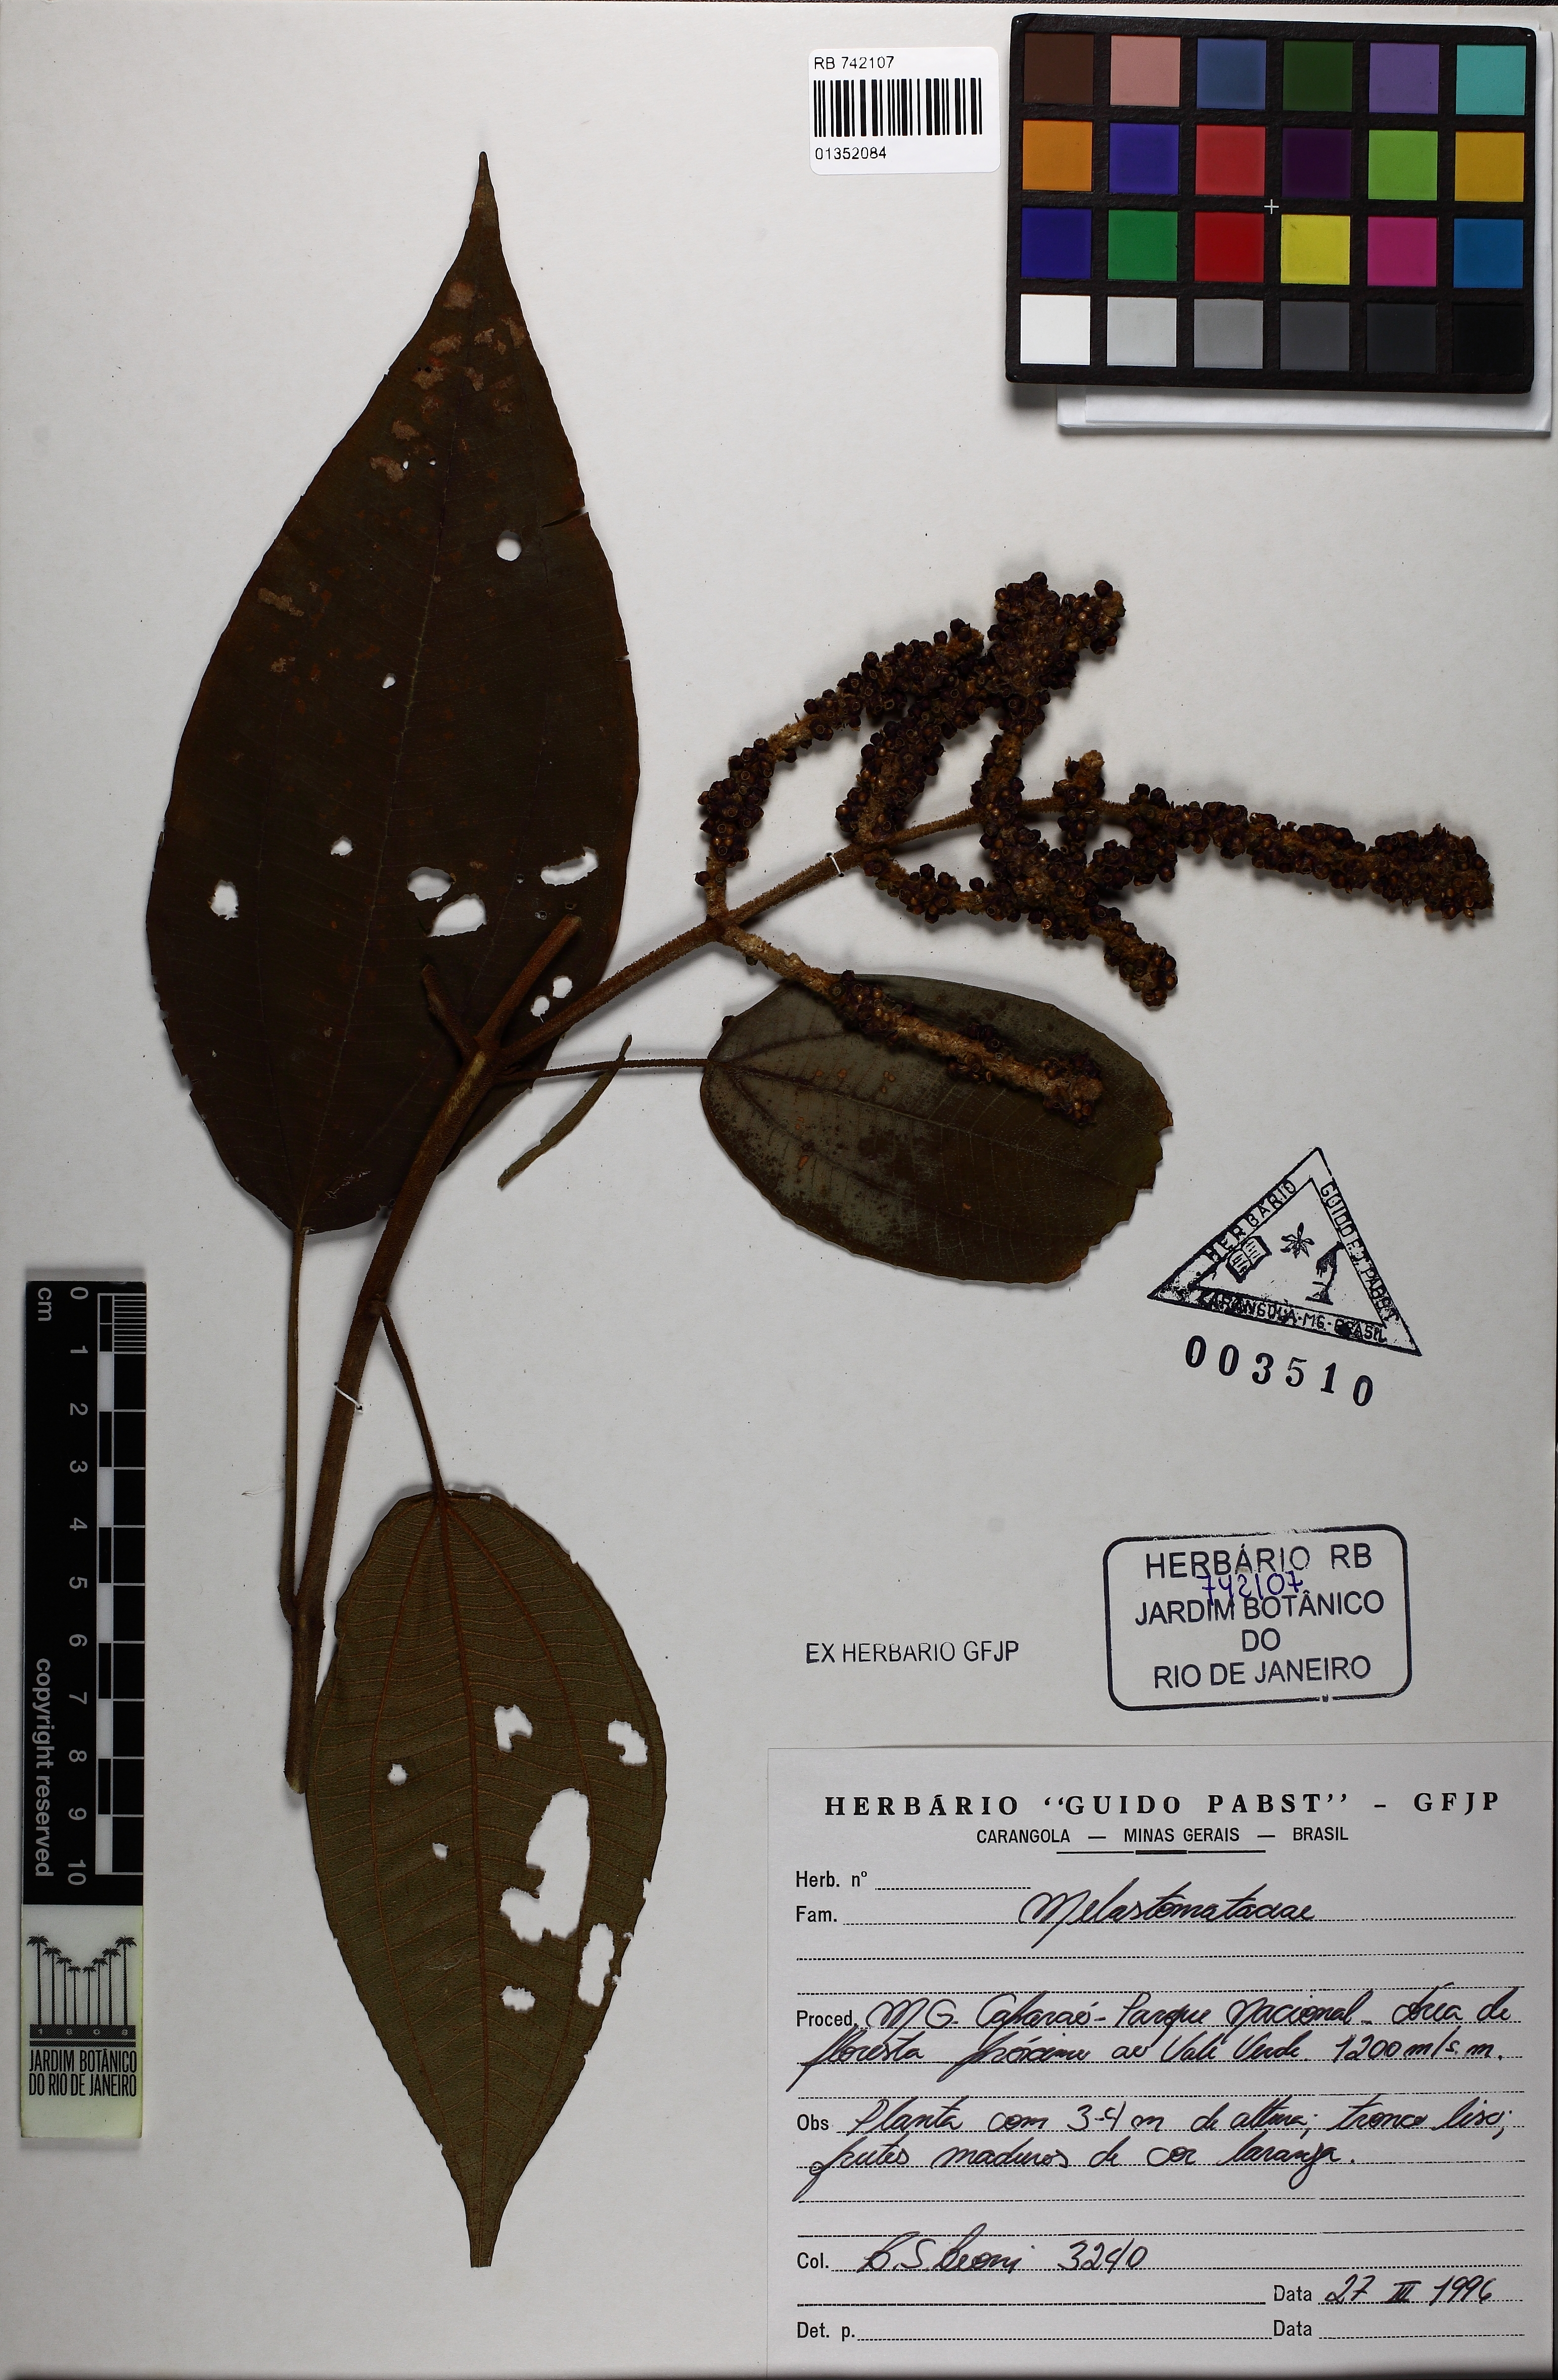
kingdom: Plantae
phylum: Tracheophyta
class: Magnoliopsida
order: Myrtales
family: Melastomataceae
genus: Miconia
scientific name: Miconia petroniana
